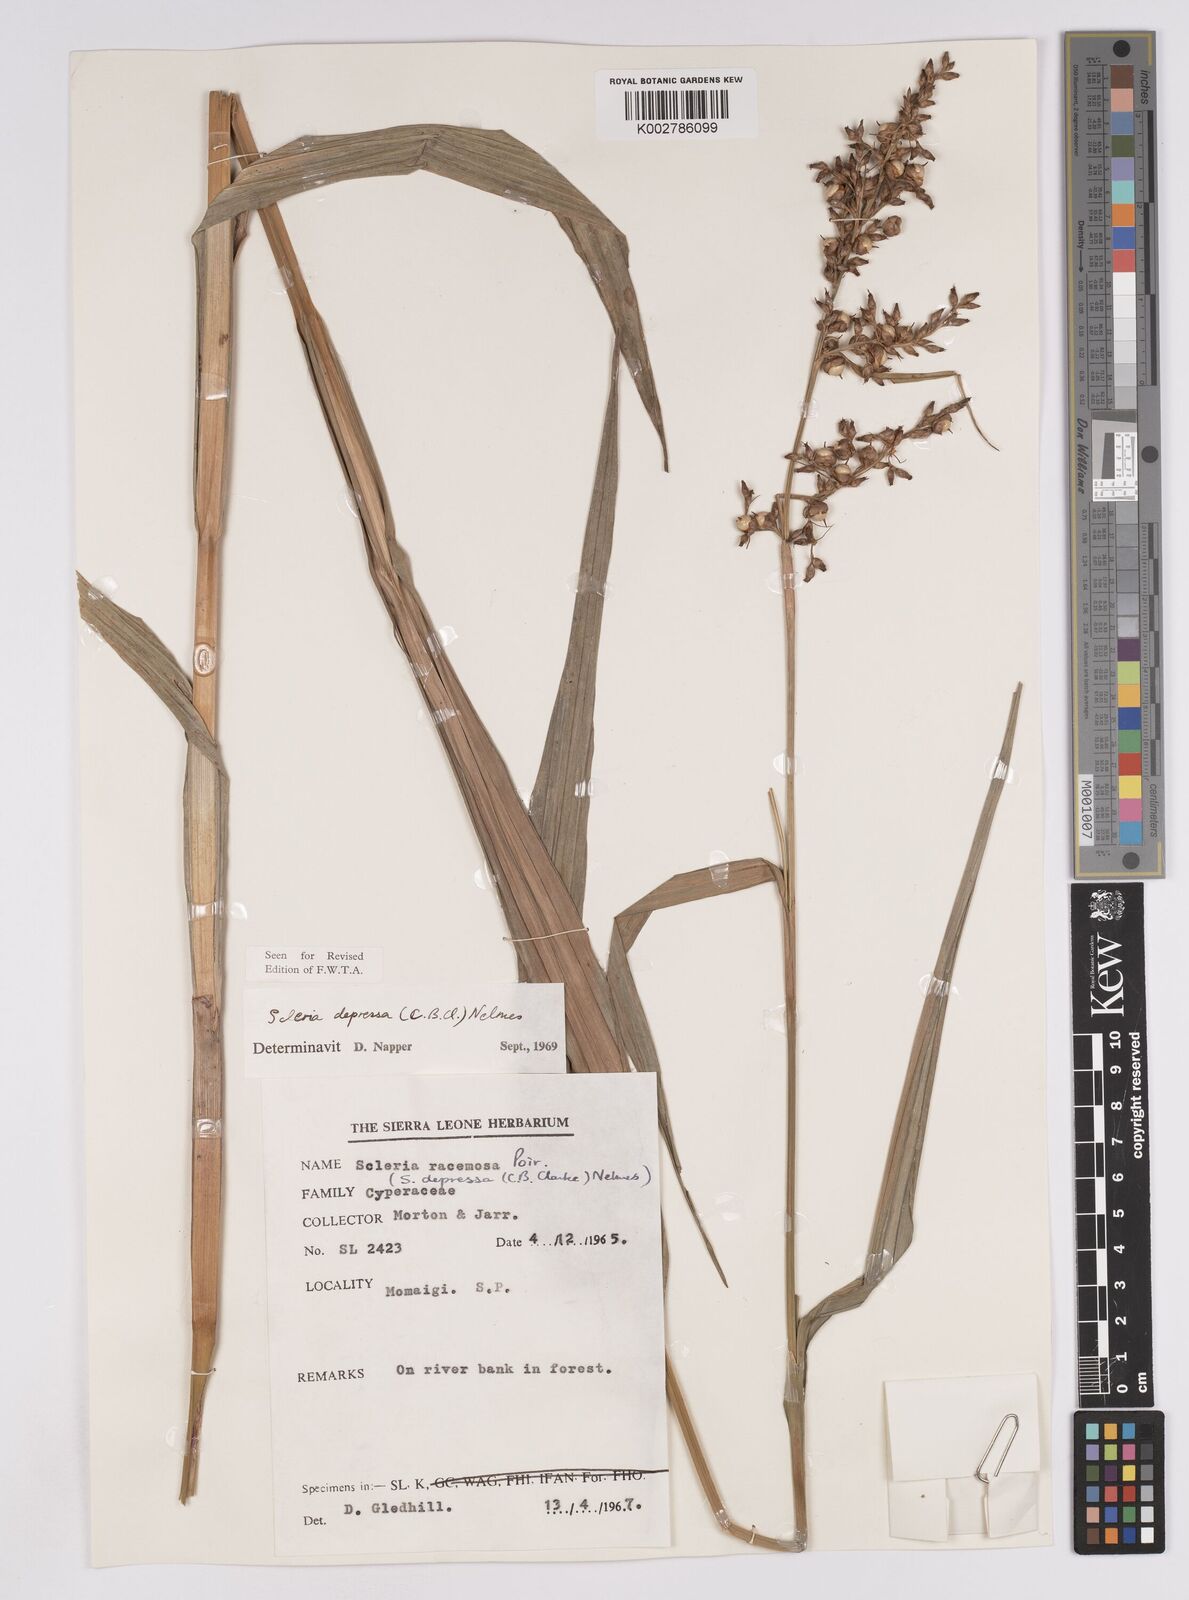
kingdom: Plantae
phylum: Tracheophyta
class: Liliopsida
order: Poales
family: Cyperaceae
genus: Scleria
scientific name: Scleria depressa
